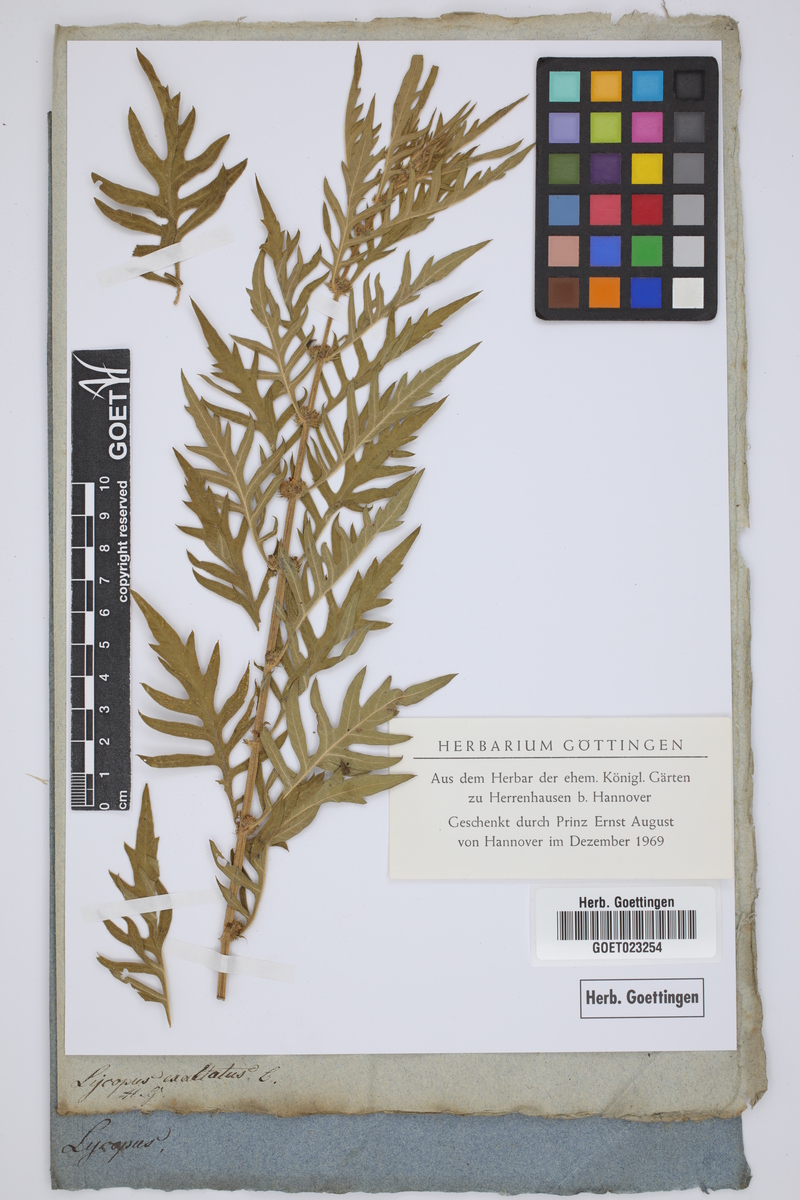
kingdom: Plantae
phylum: Tracheophyta
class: Magnoliopsida
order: Lamiales
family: Lamiaceae
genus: Lycopus
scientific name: Lycopus exaltatus
